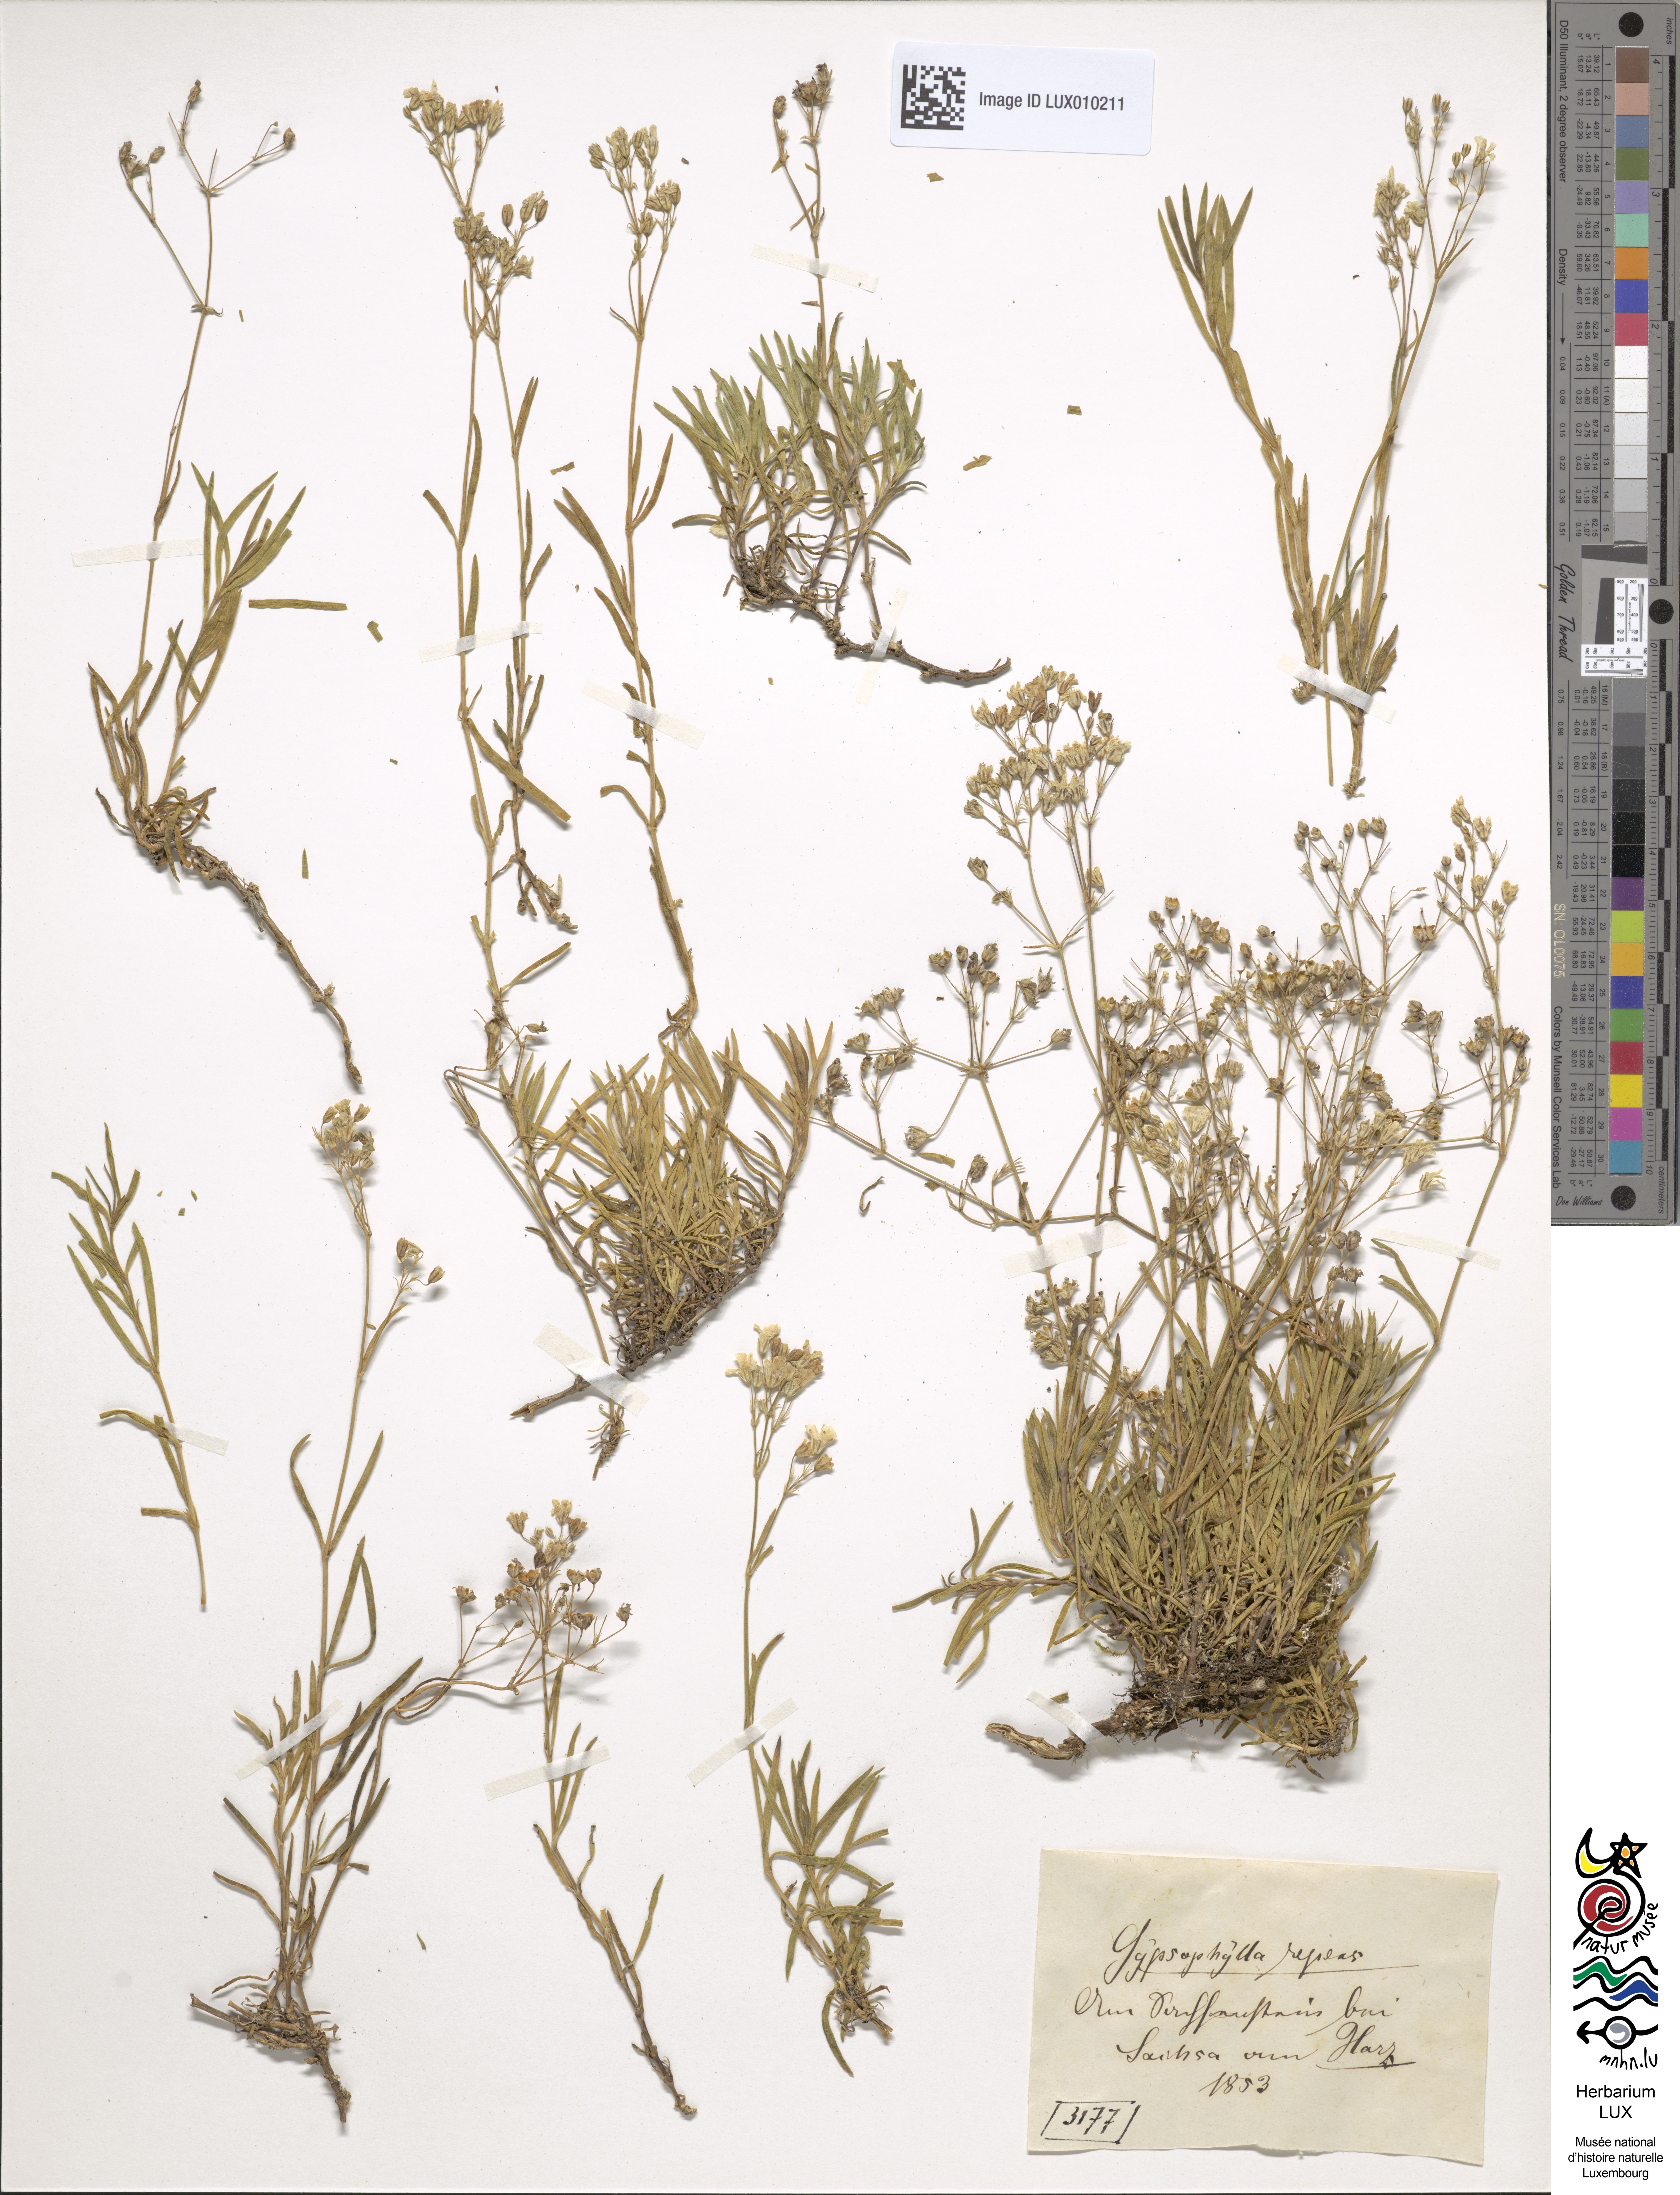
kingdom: Plantae
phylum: Tracheophyta
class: Magnoliopsida
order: Caryophyllales
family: Caryophyllaceae
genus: Gypsophila
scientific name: Gypsophila repens
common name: Creeping baby's-breath
